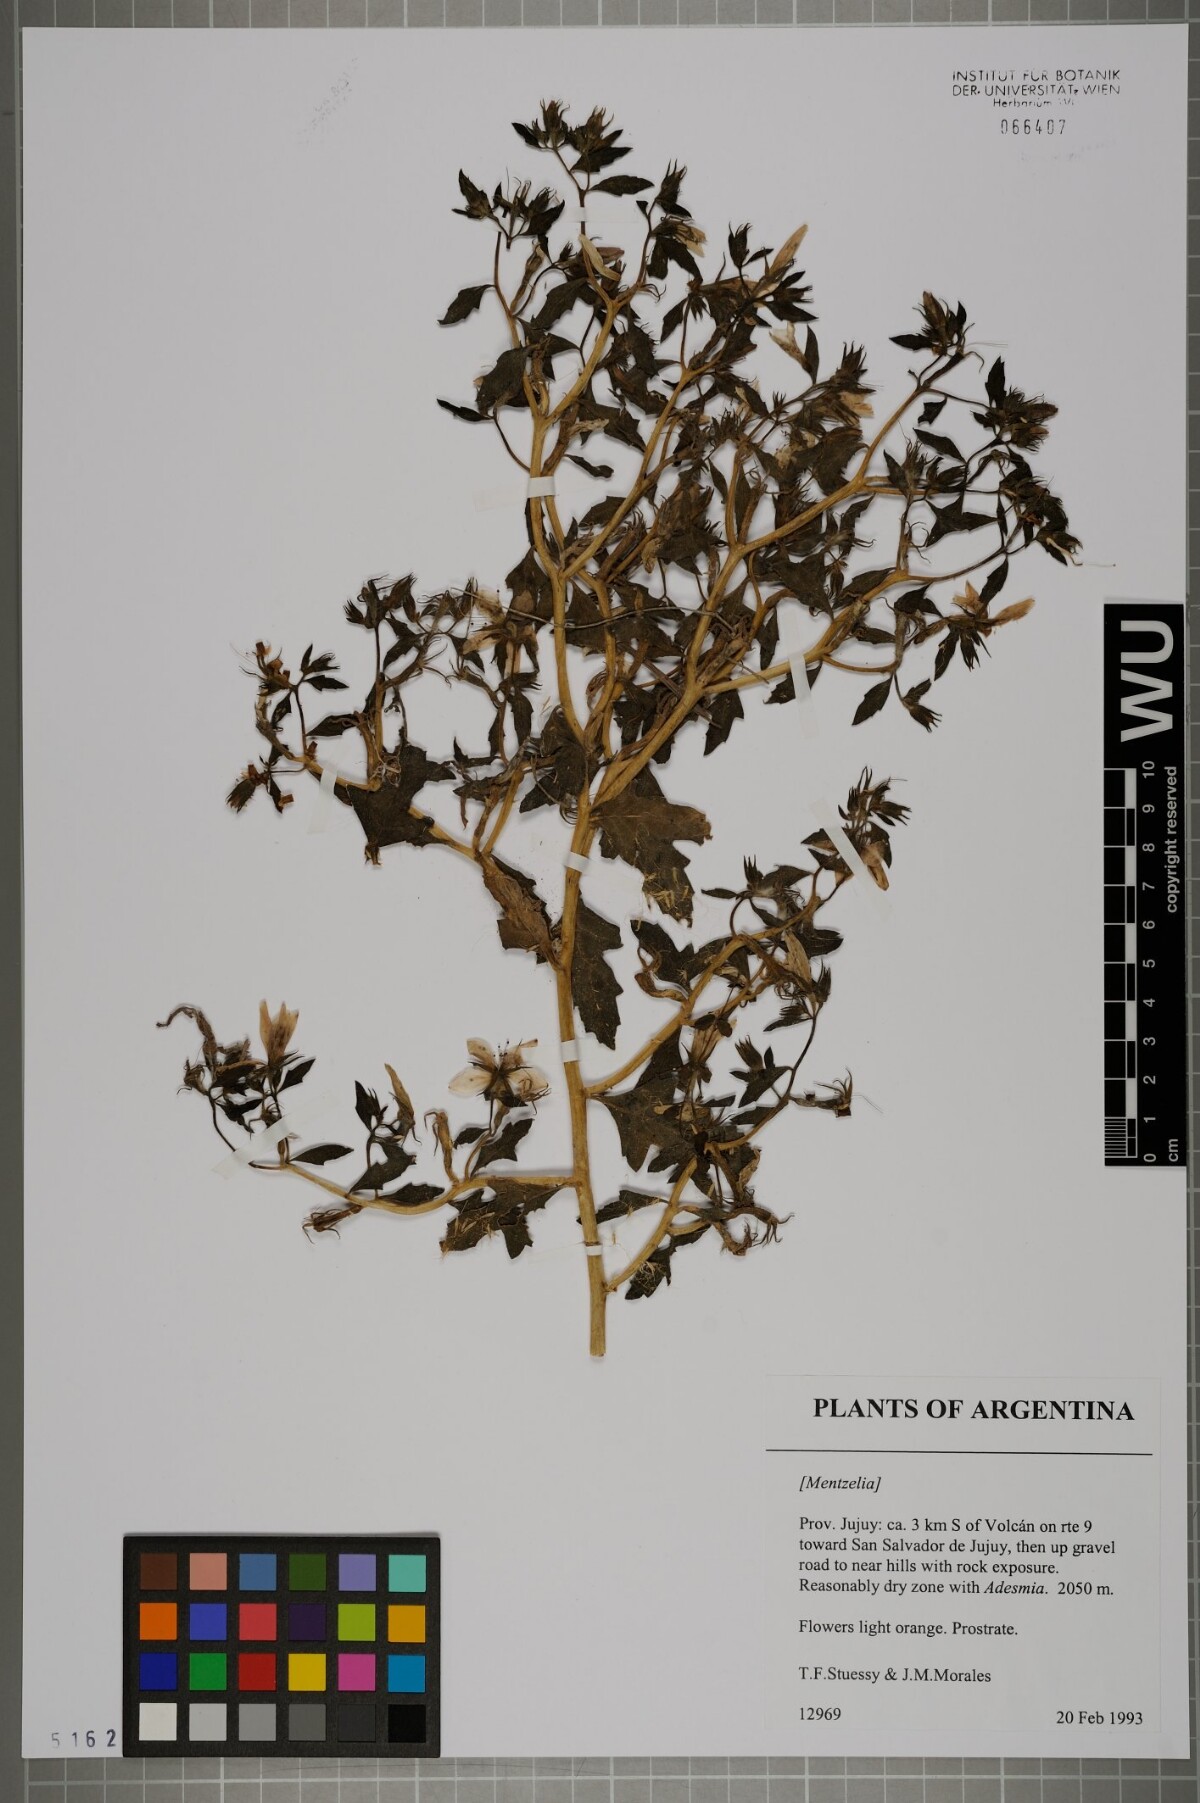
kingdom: Plantae
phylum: Tracheophyta
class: Magnoliopsida
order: Cornales
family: Loasaceae
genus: Mentzelia
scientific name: Mentzelia
